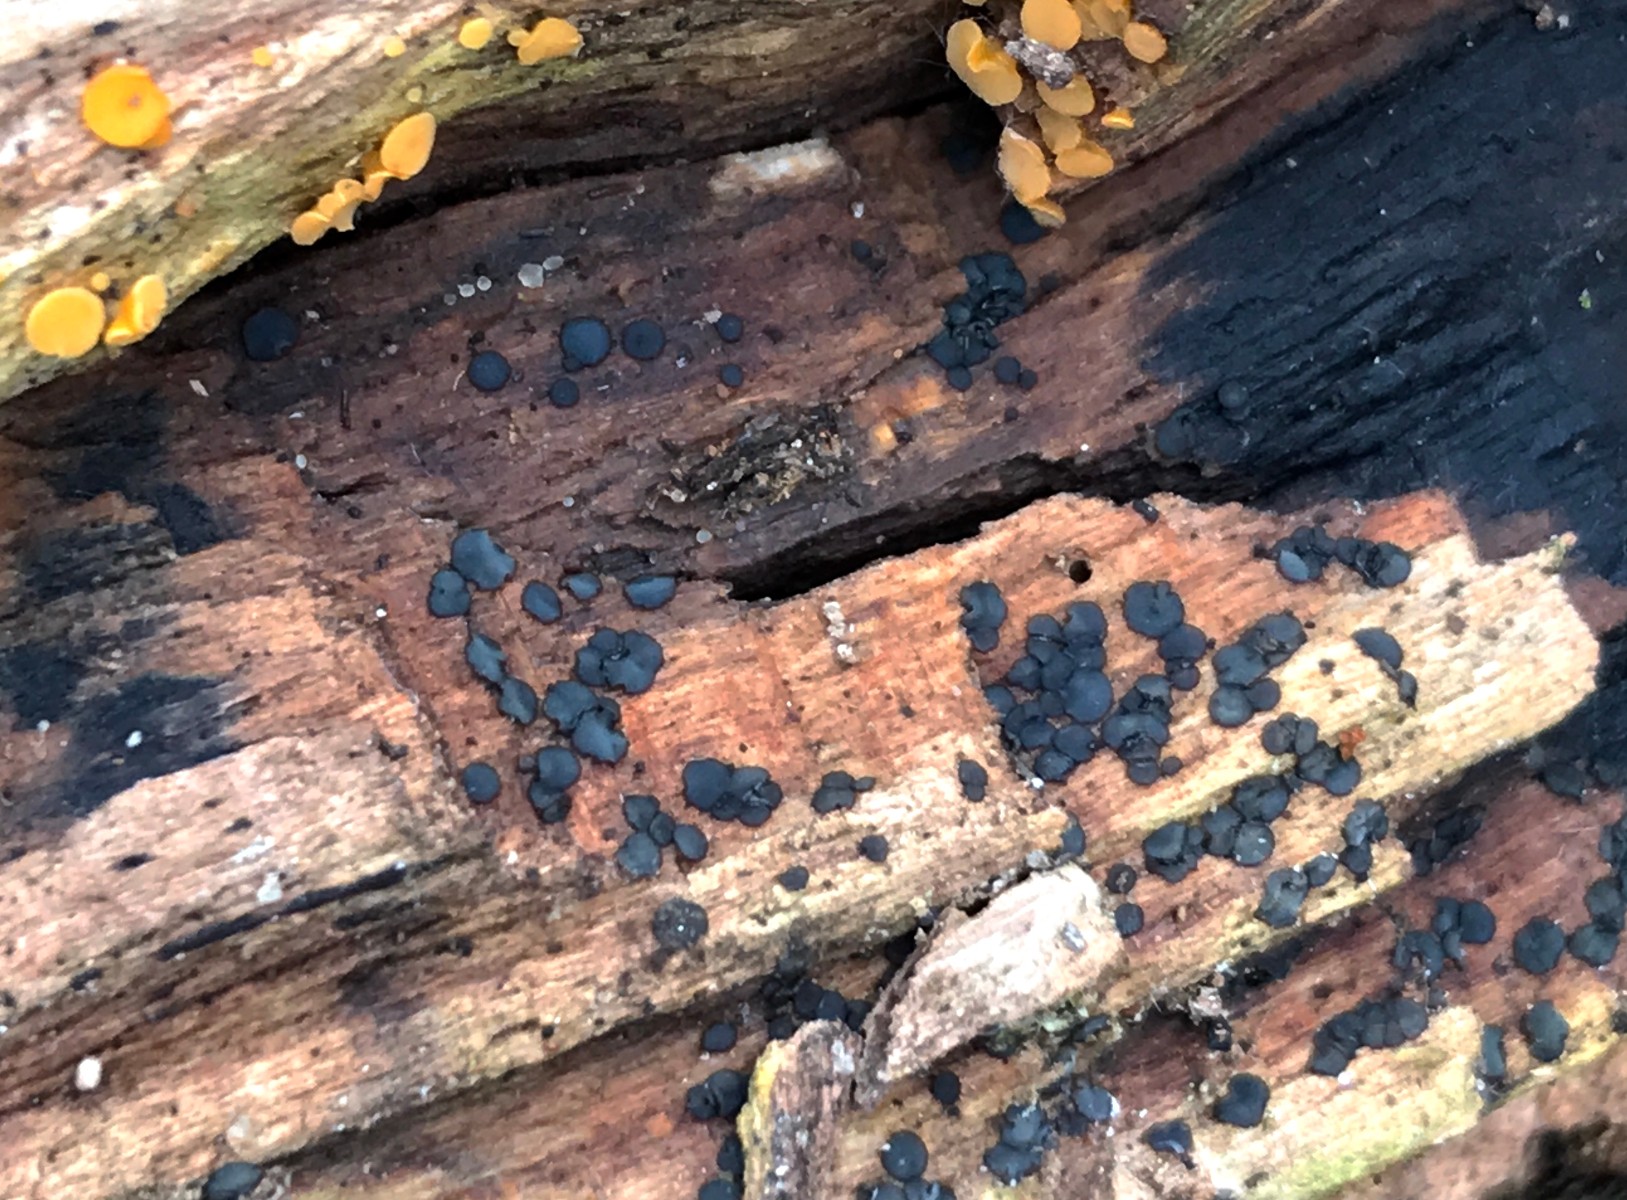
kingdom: Fungi
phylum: Ascomycota
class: Leotiomycetes
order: Helotiales
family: Mollisiaceae
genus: Mollisia
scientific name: Mollisia ligni
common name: ved-gråskive
